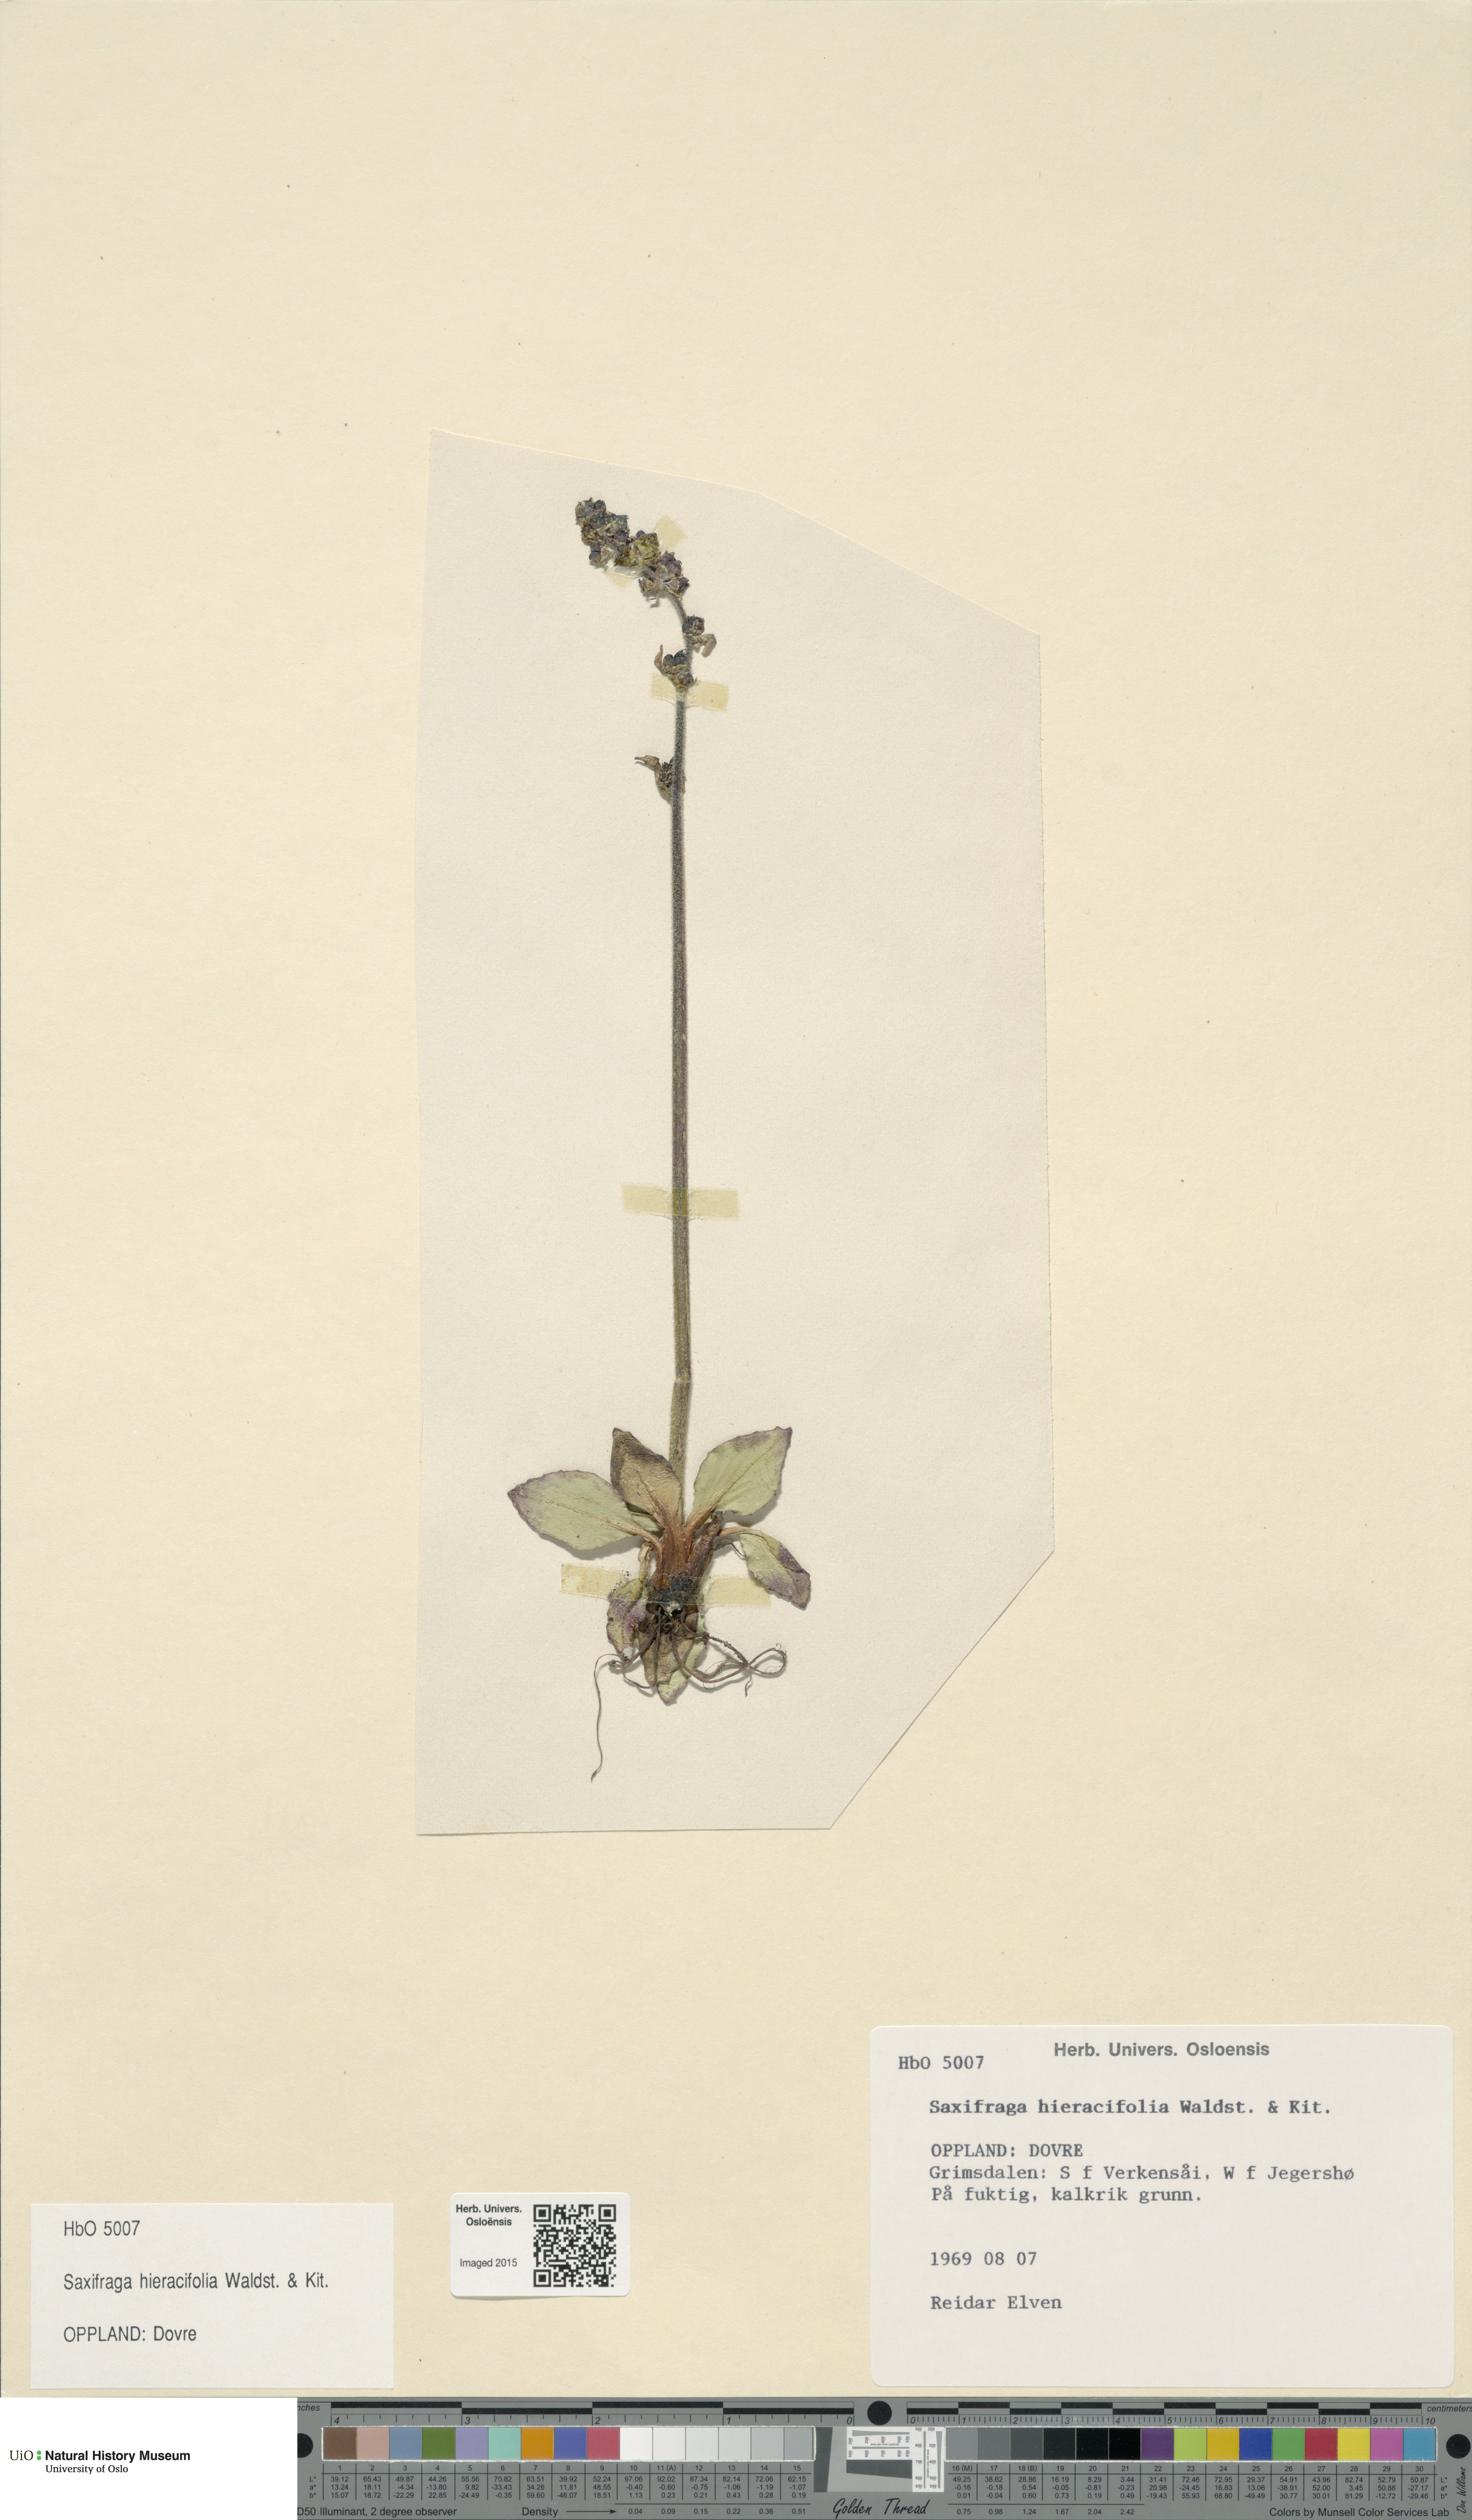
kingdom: Plantae
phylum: Tracheophyta
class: Magnoliopsida
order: Saxifragales
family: Saxifragaceae
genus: Micranthes
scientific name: Micranthes hieraciifolia
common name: Hawkweed-leaved saxifrage
